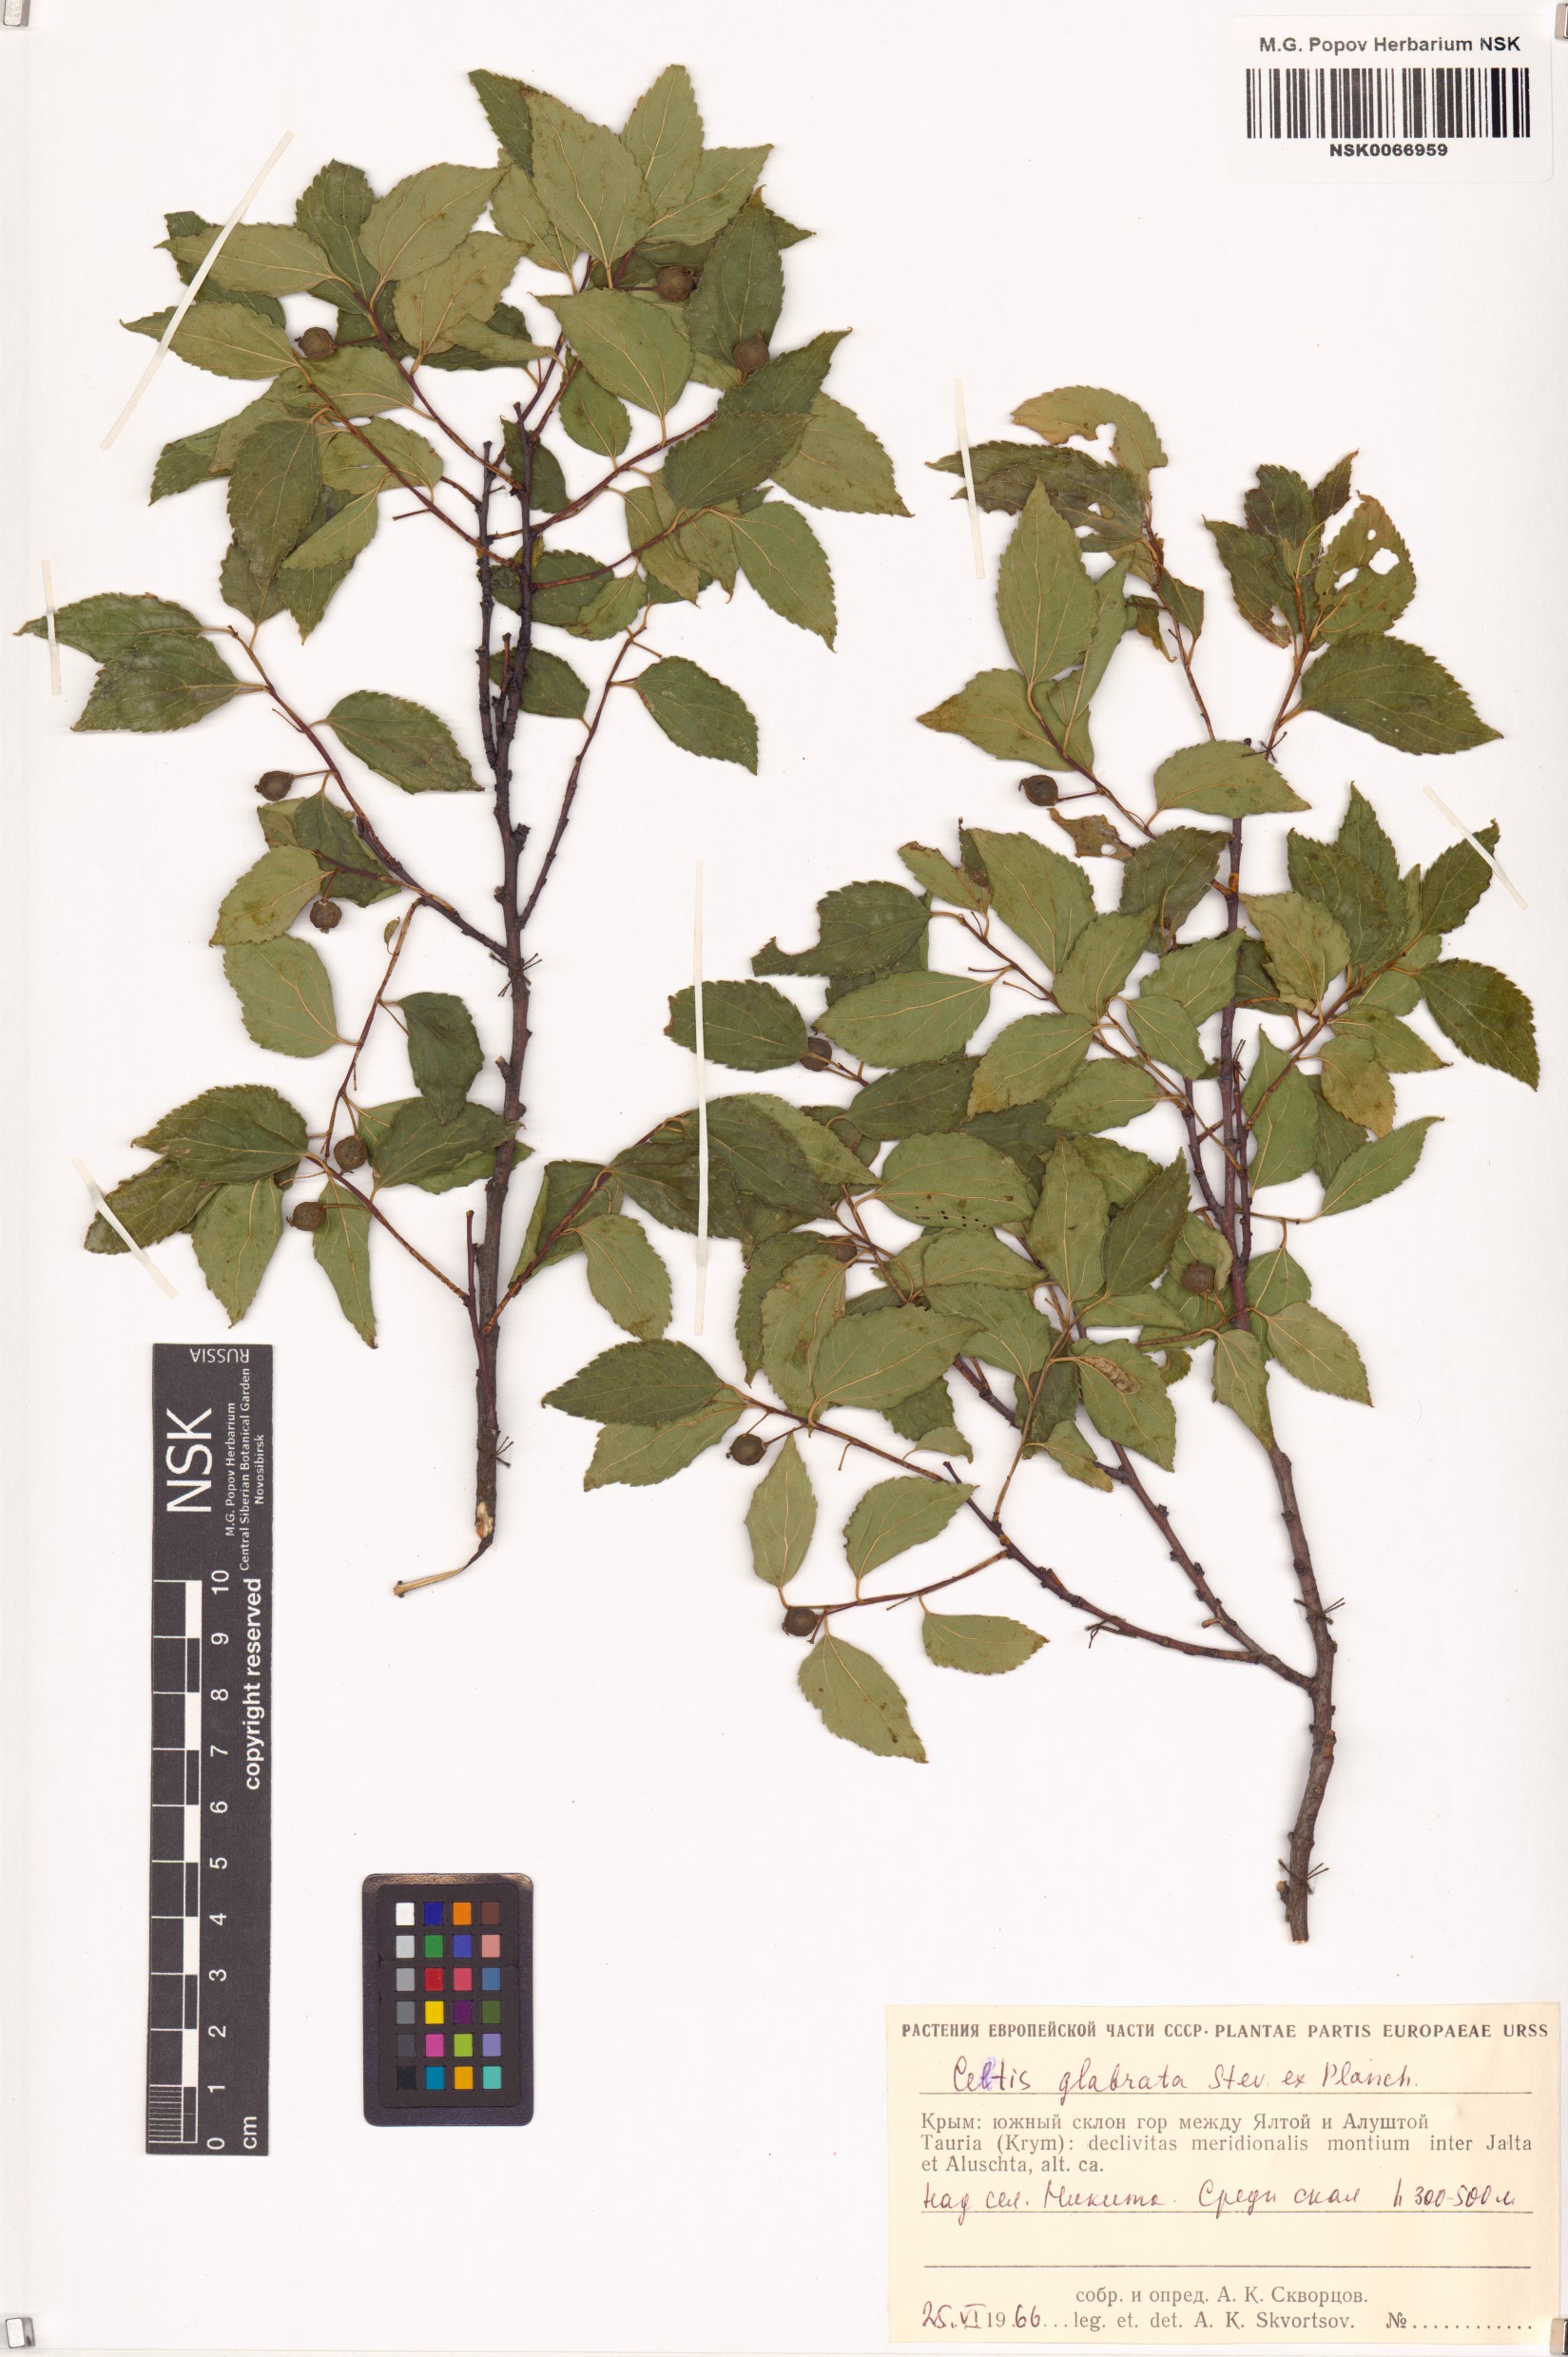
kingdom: Plantae
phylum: Tracheophyta
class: Magnoliopsida
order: Rosales
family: Cannabaceae
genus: Celtis
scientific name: Celtis glabrata
